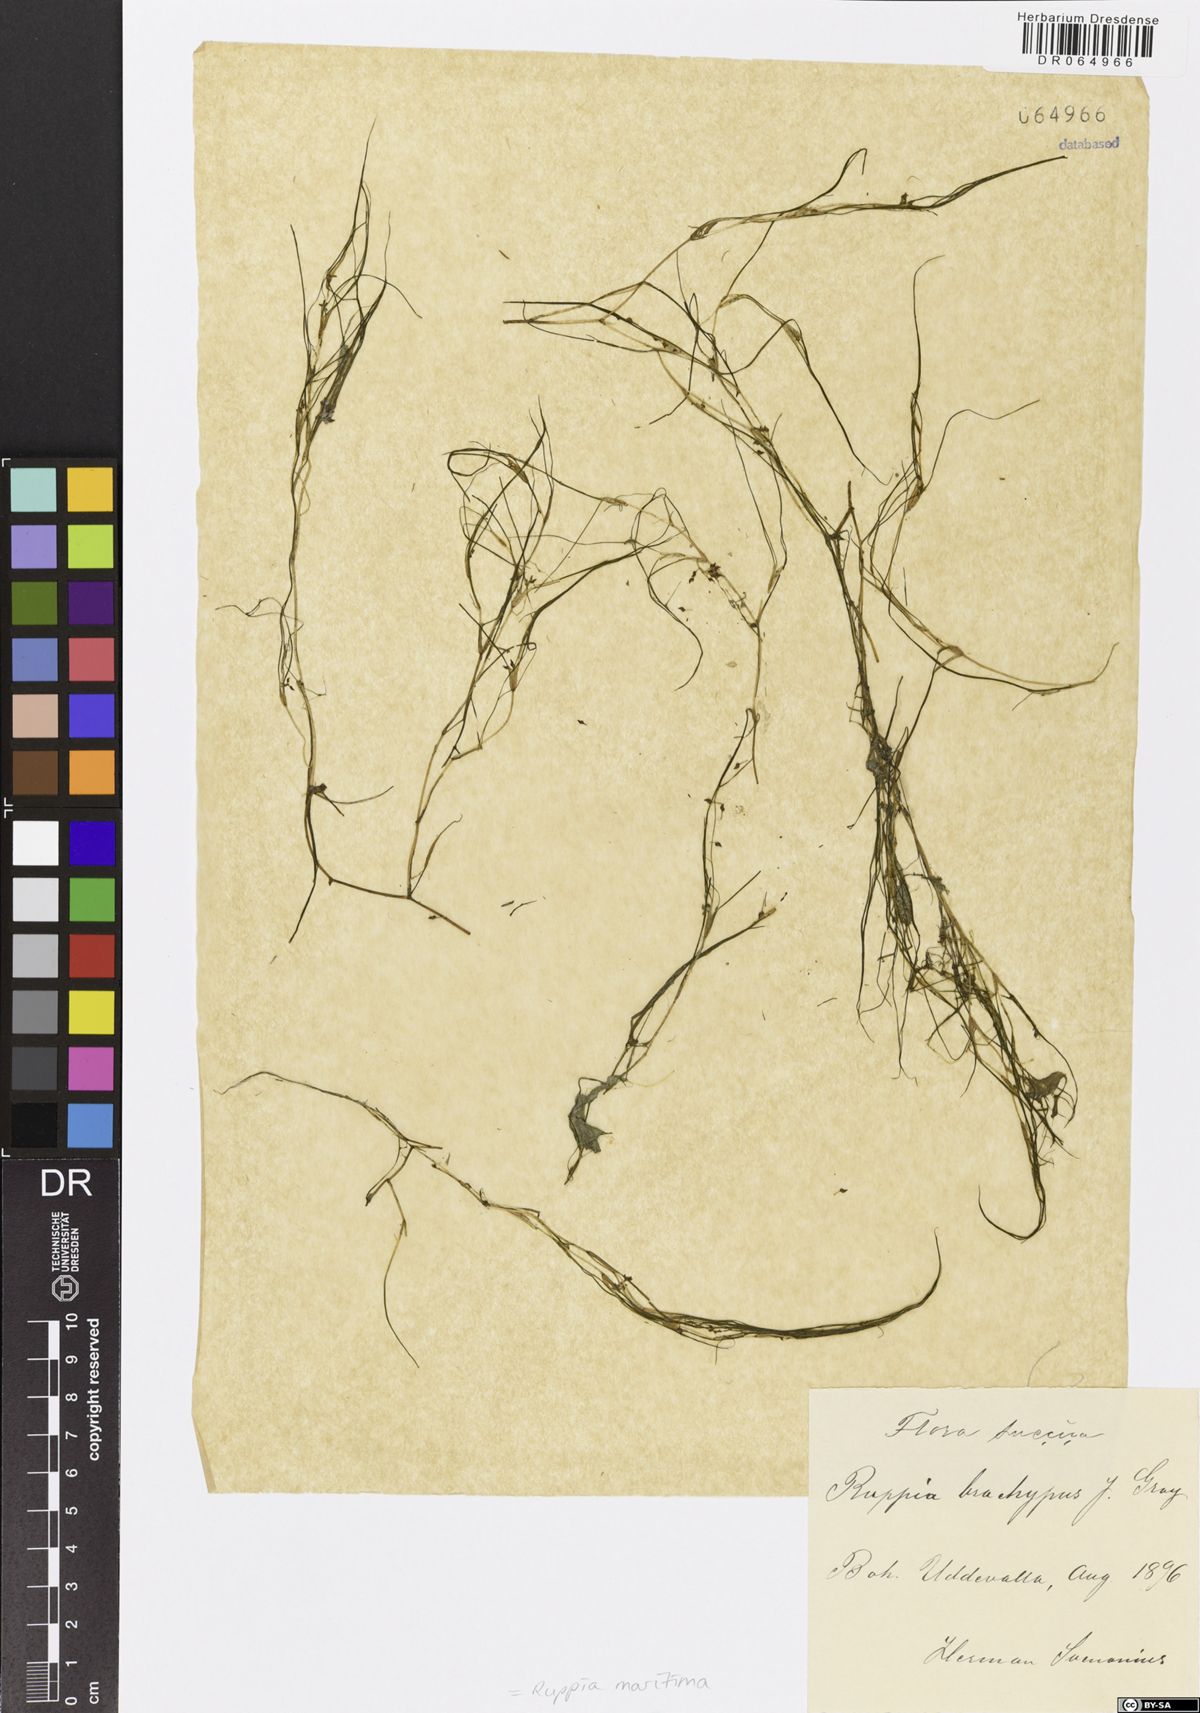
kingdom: Plantae
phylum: Tracheophyta
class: Liliopsida
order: Alismatales
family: Ruppiaceae
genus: Ruppia
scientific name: Ruppia maritima
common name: Beaked tasselweed
